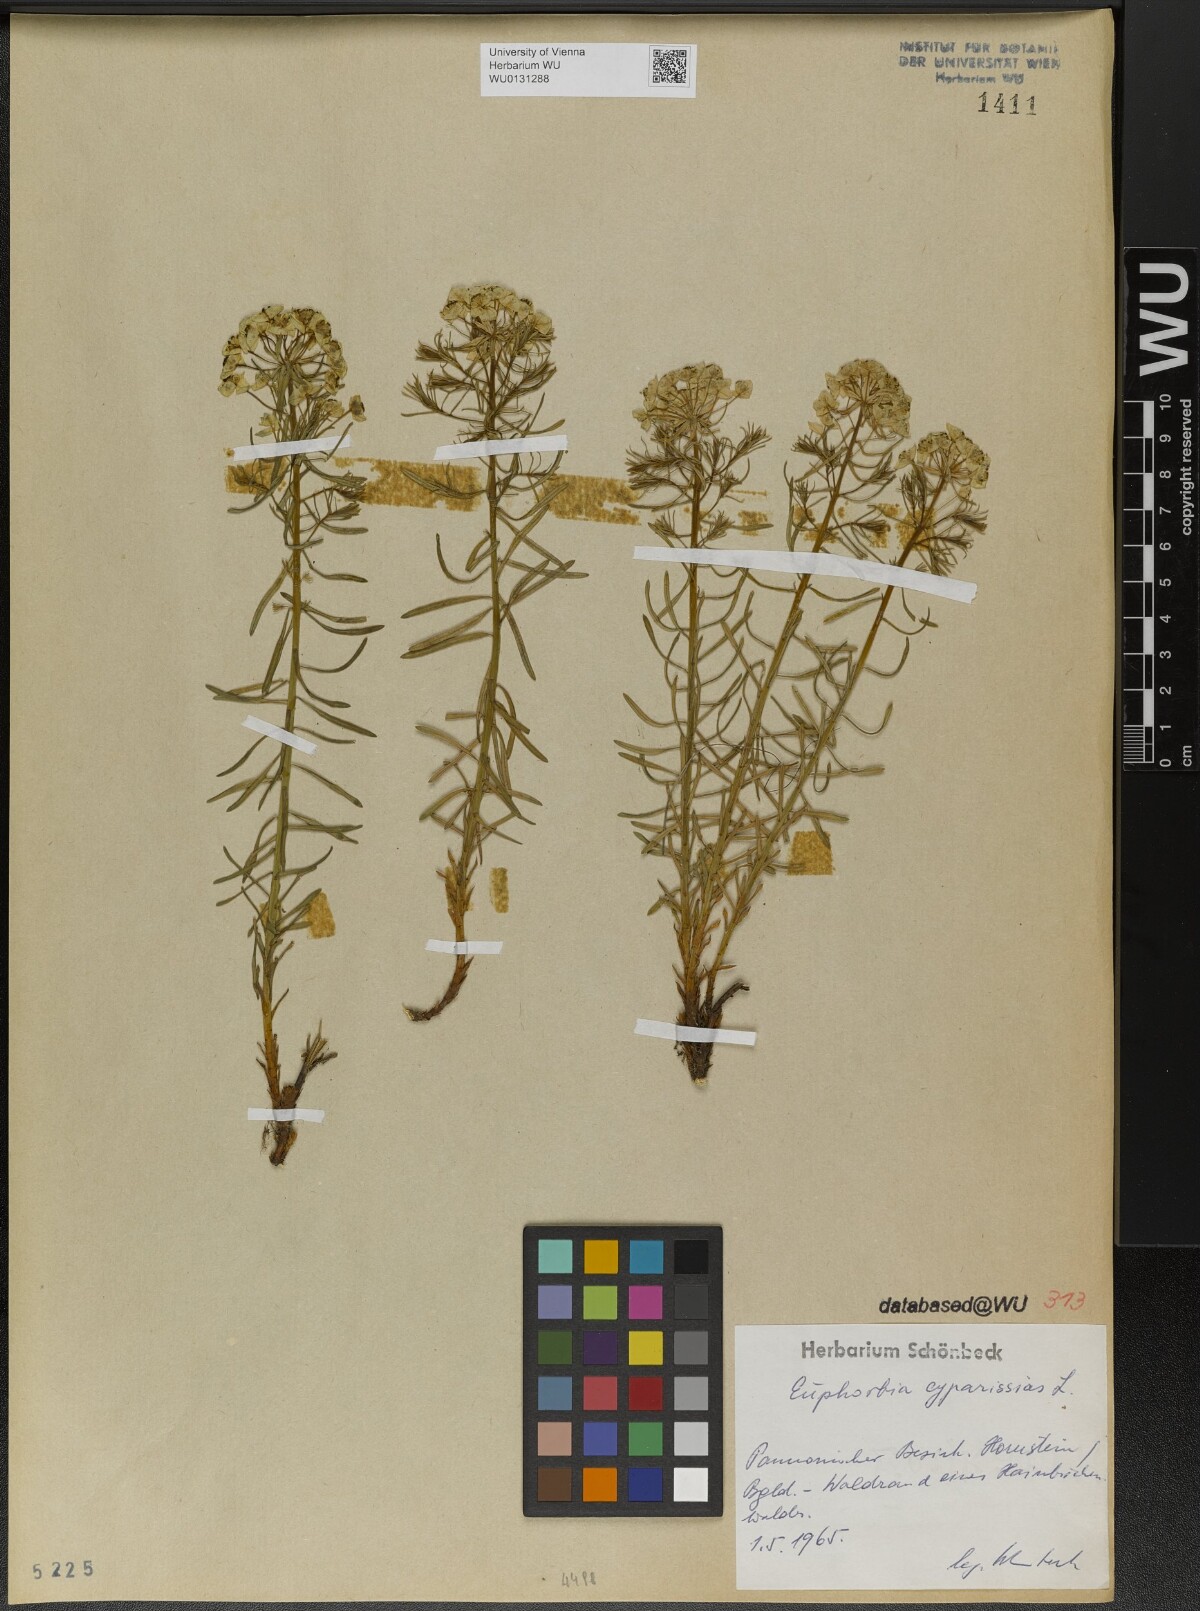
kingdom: Plantae
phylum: Tracheophyta
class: Magnoliopsida
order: Malpighiales
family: Euphorbiaceae
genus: Euphorbia
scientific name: Euphorbia cyparissias
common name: Cypress spurge
